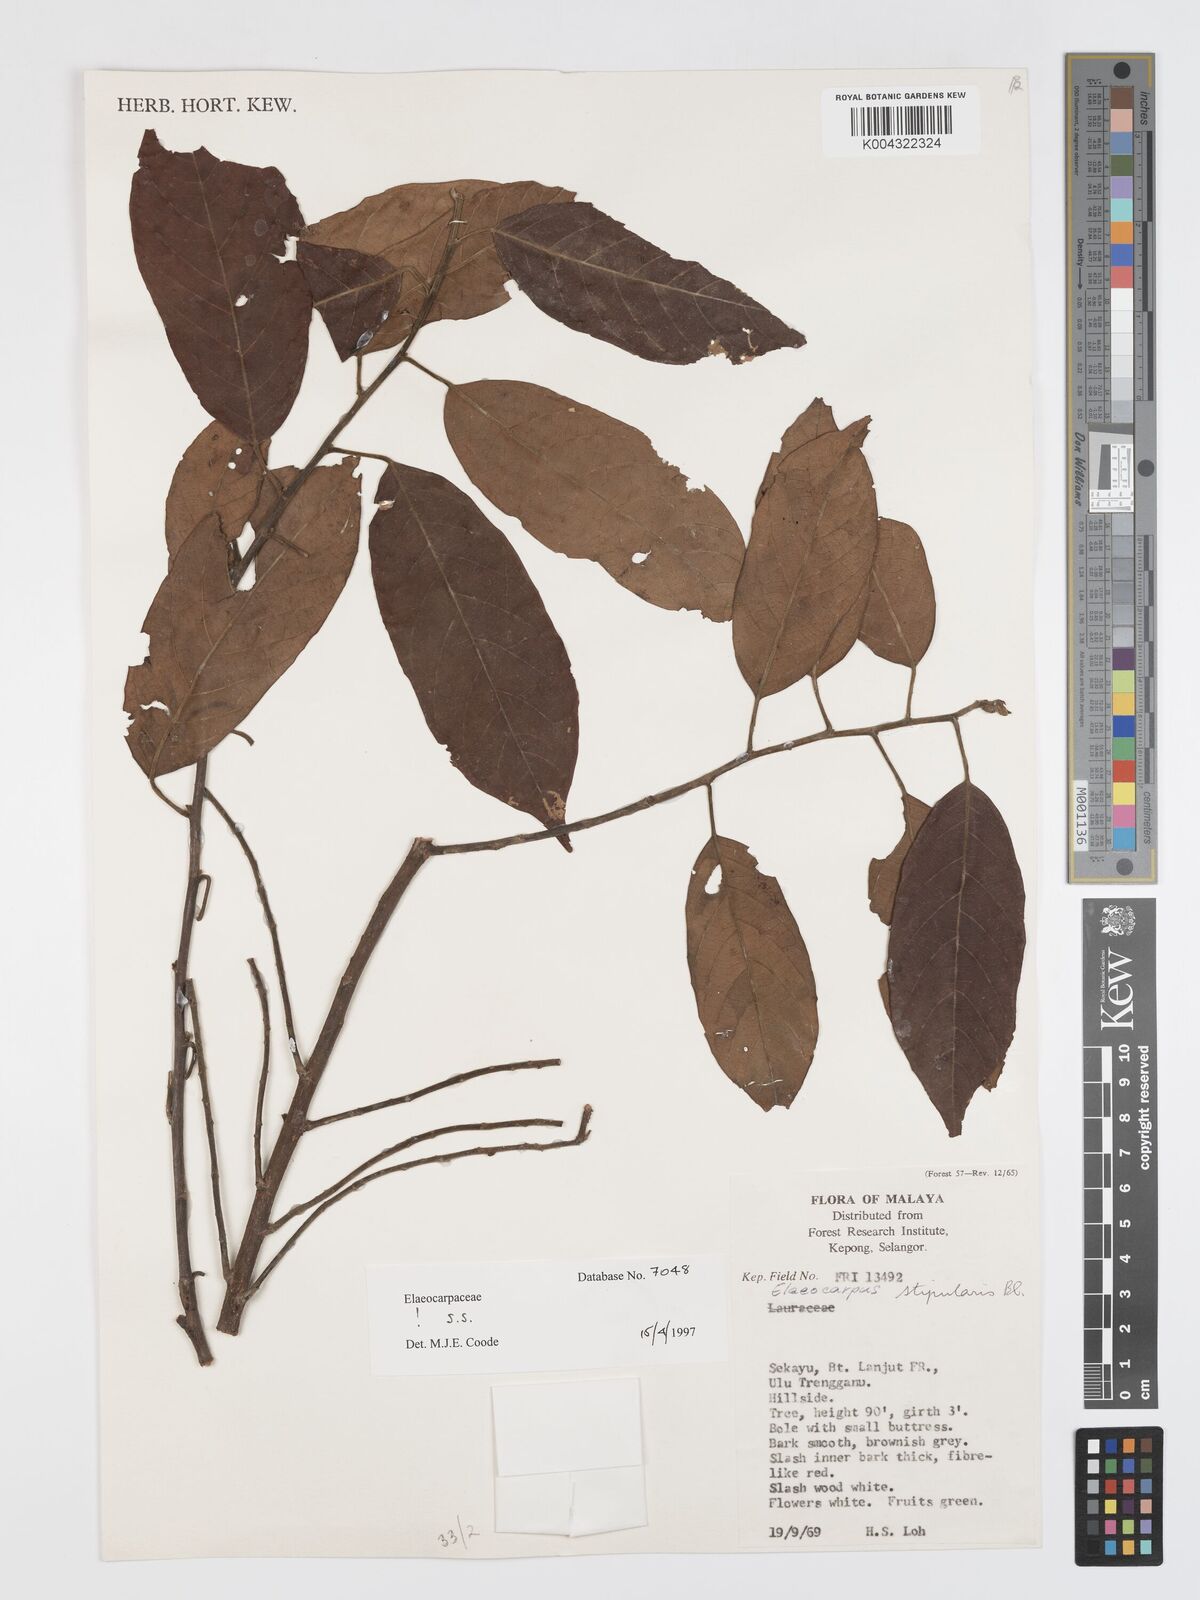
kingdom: Plantae
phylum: Tracheophyta
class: Magnoliopsida
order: Oxalidales
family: Elaeocarpaceae
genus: Elaeocarpus
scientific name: Elaeocarpus stipularis
